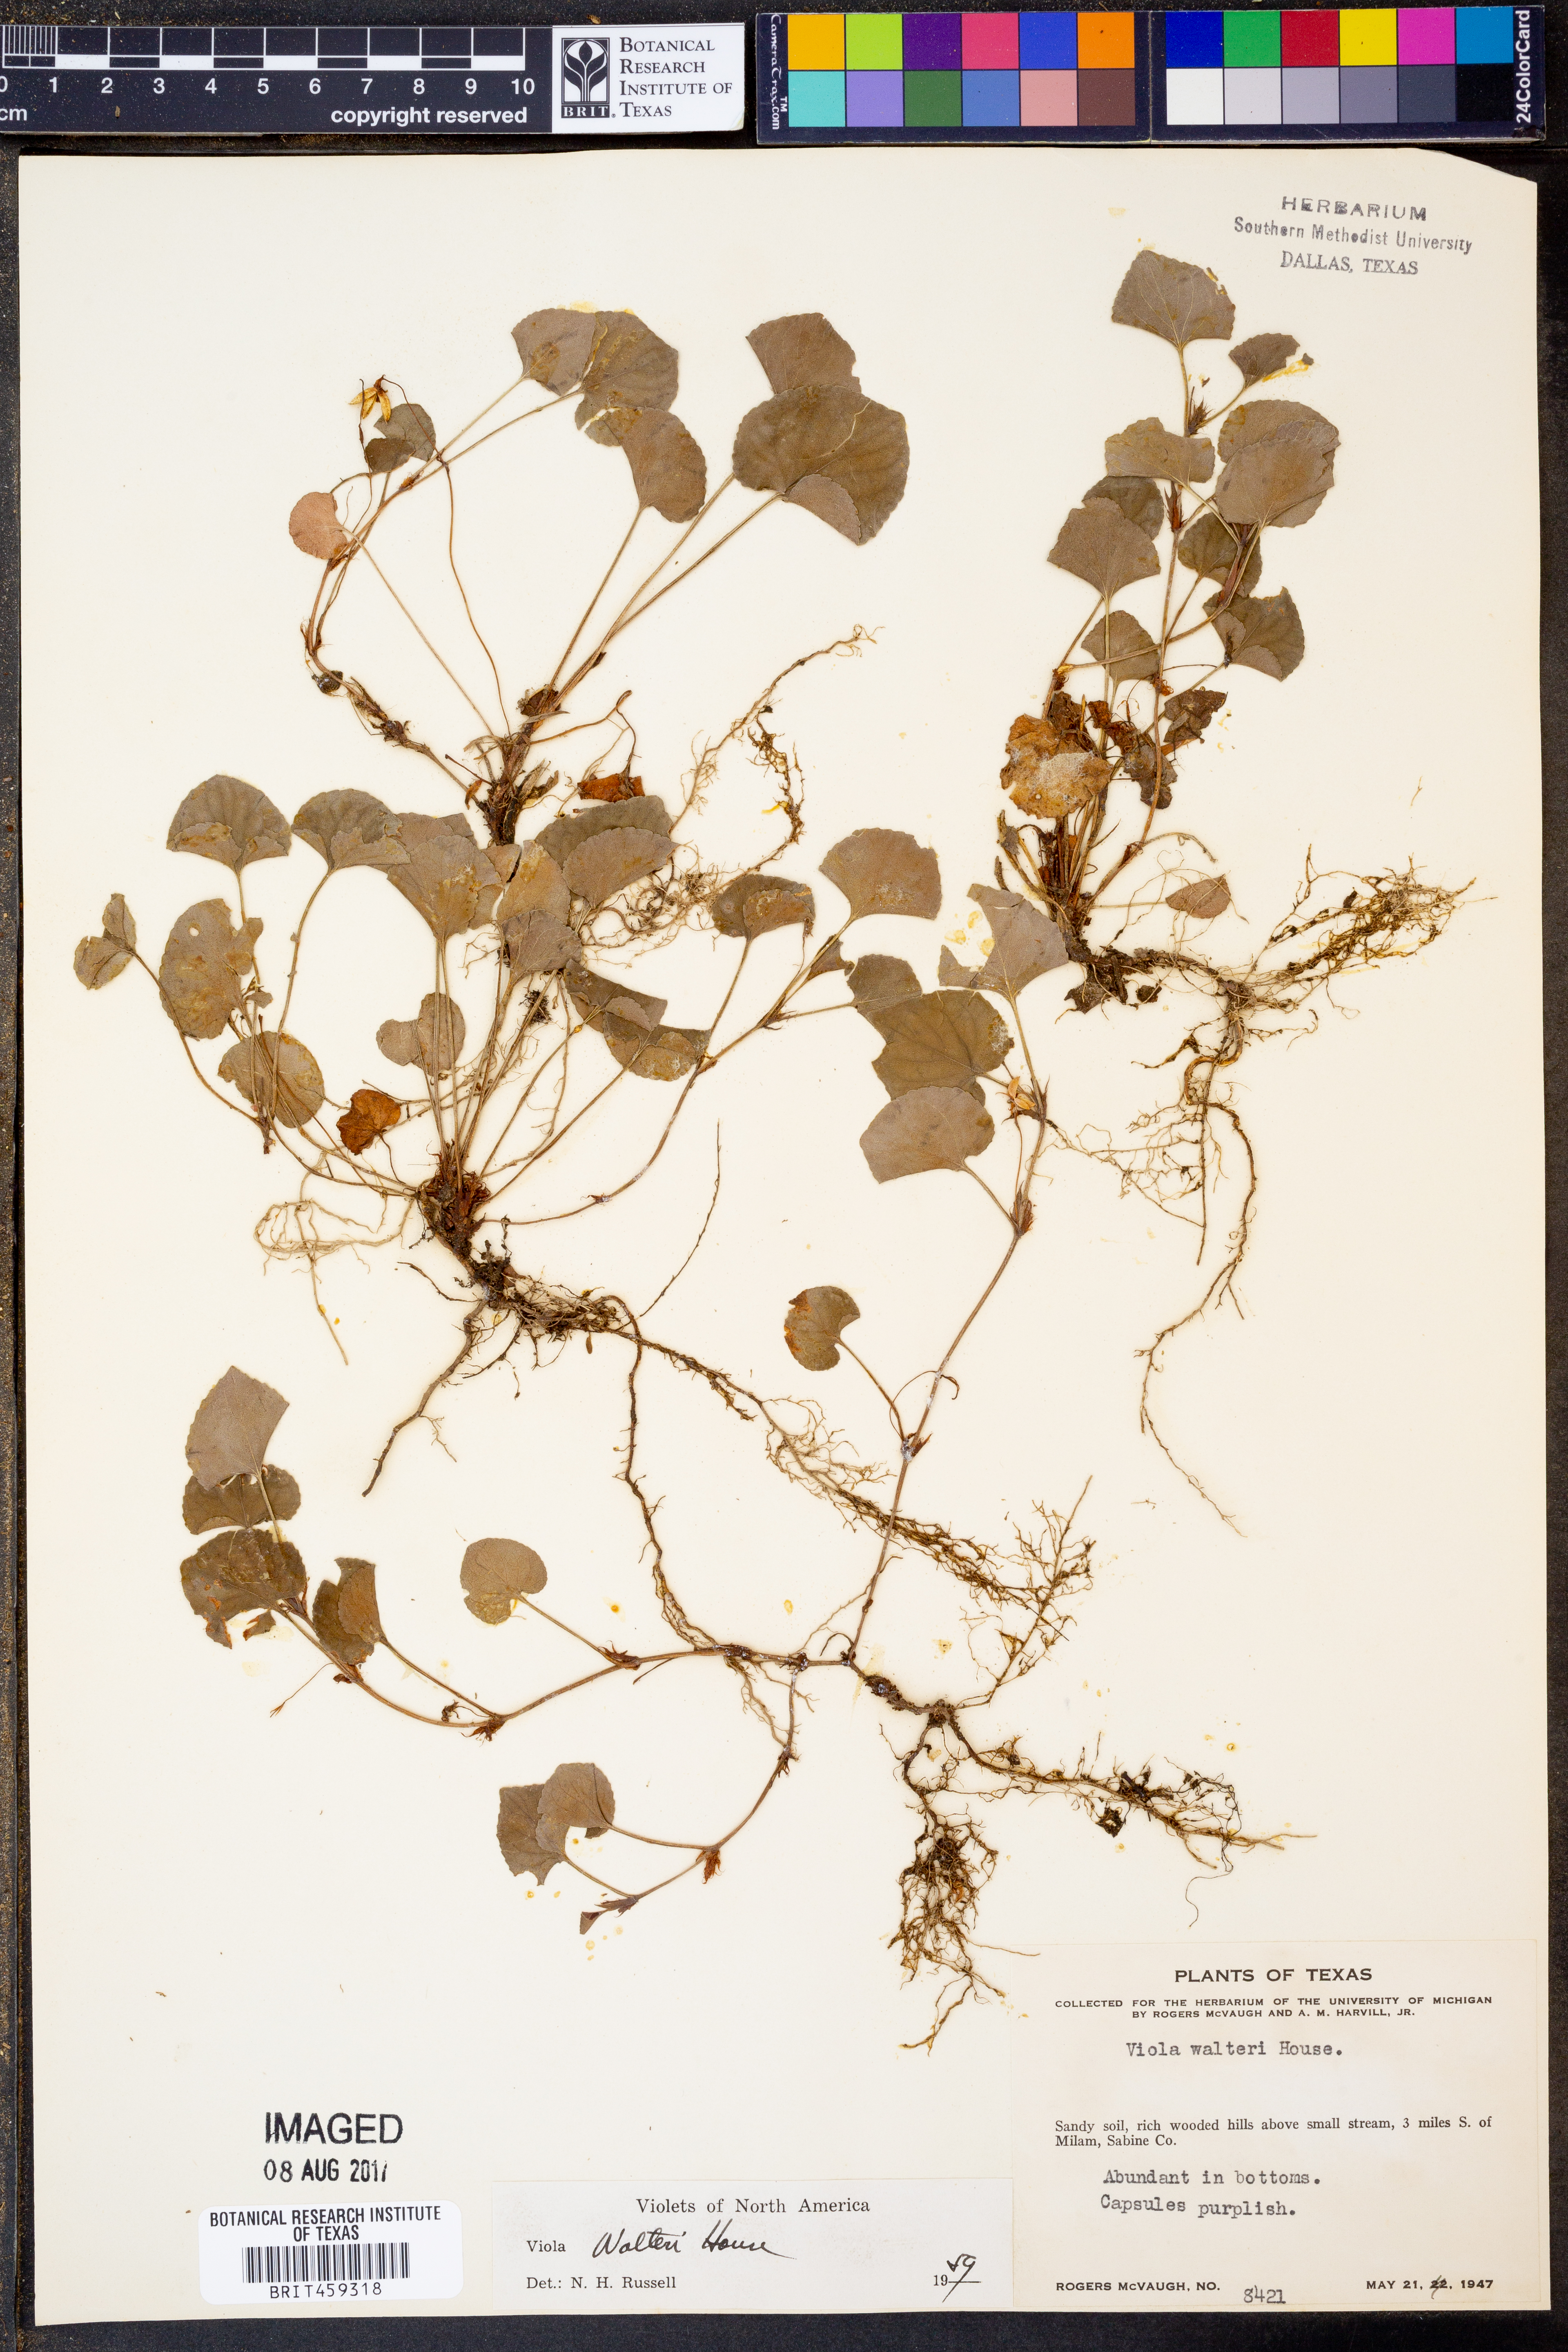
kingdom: Plantae
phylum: Tracheophyta
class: Magnoliopsida
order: Malpighiales
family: Violaceae
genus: Viola
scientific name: Viola walteri
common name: Prostrate southern violet
